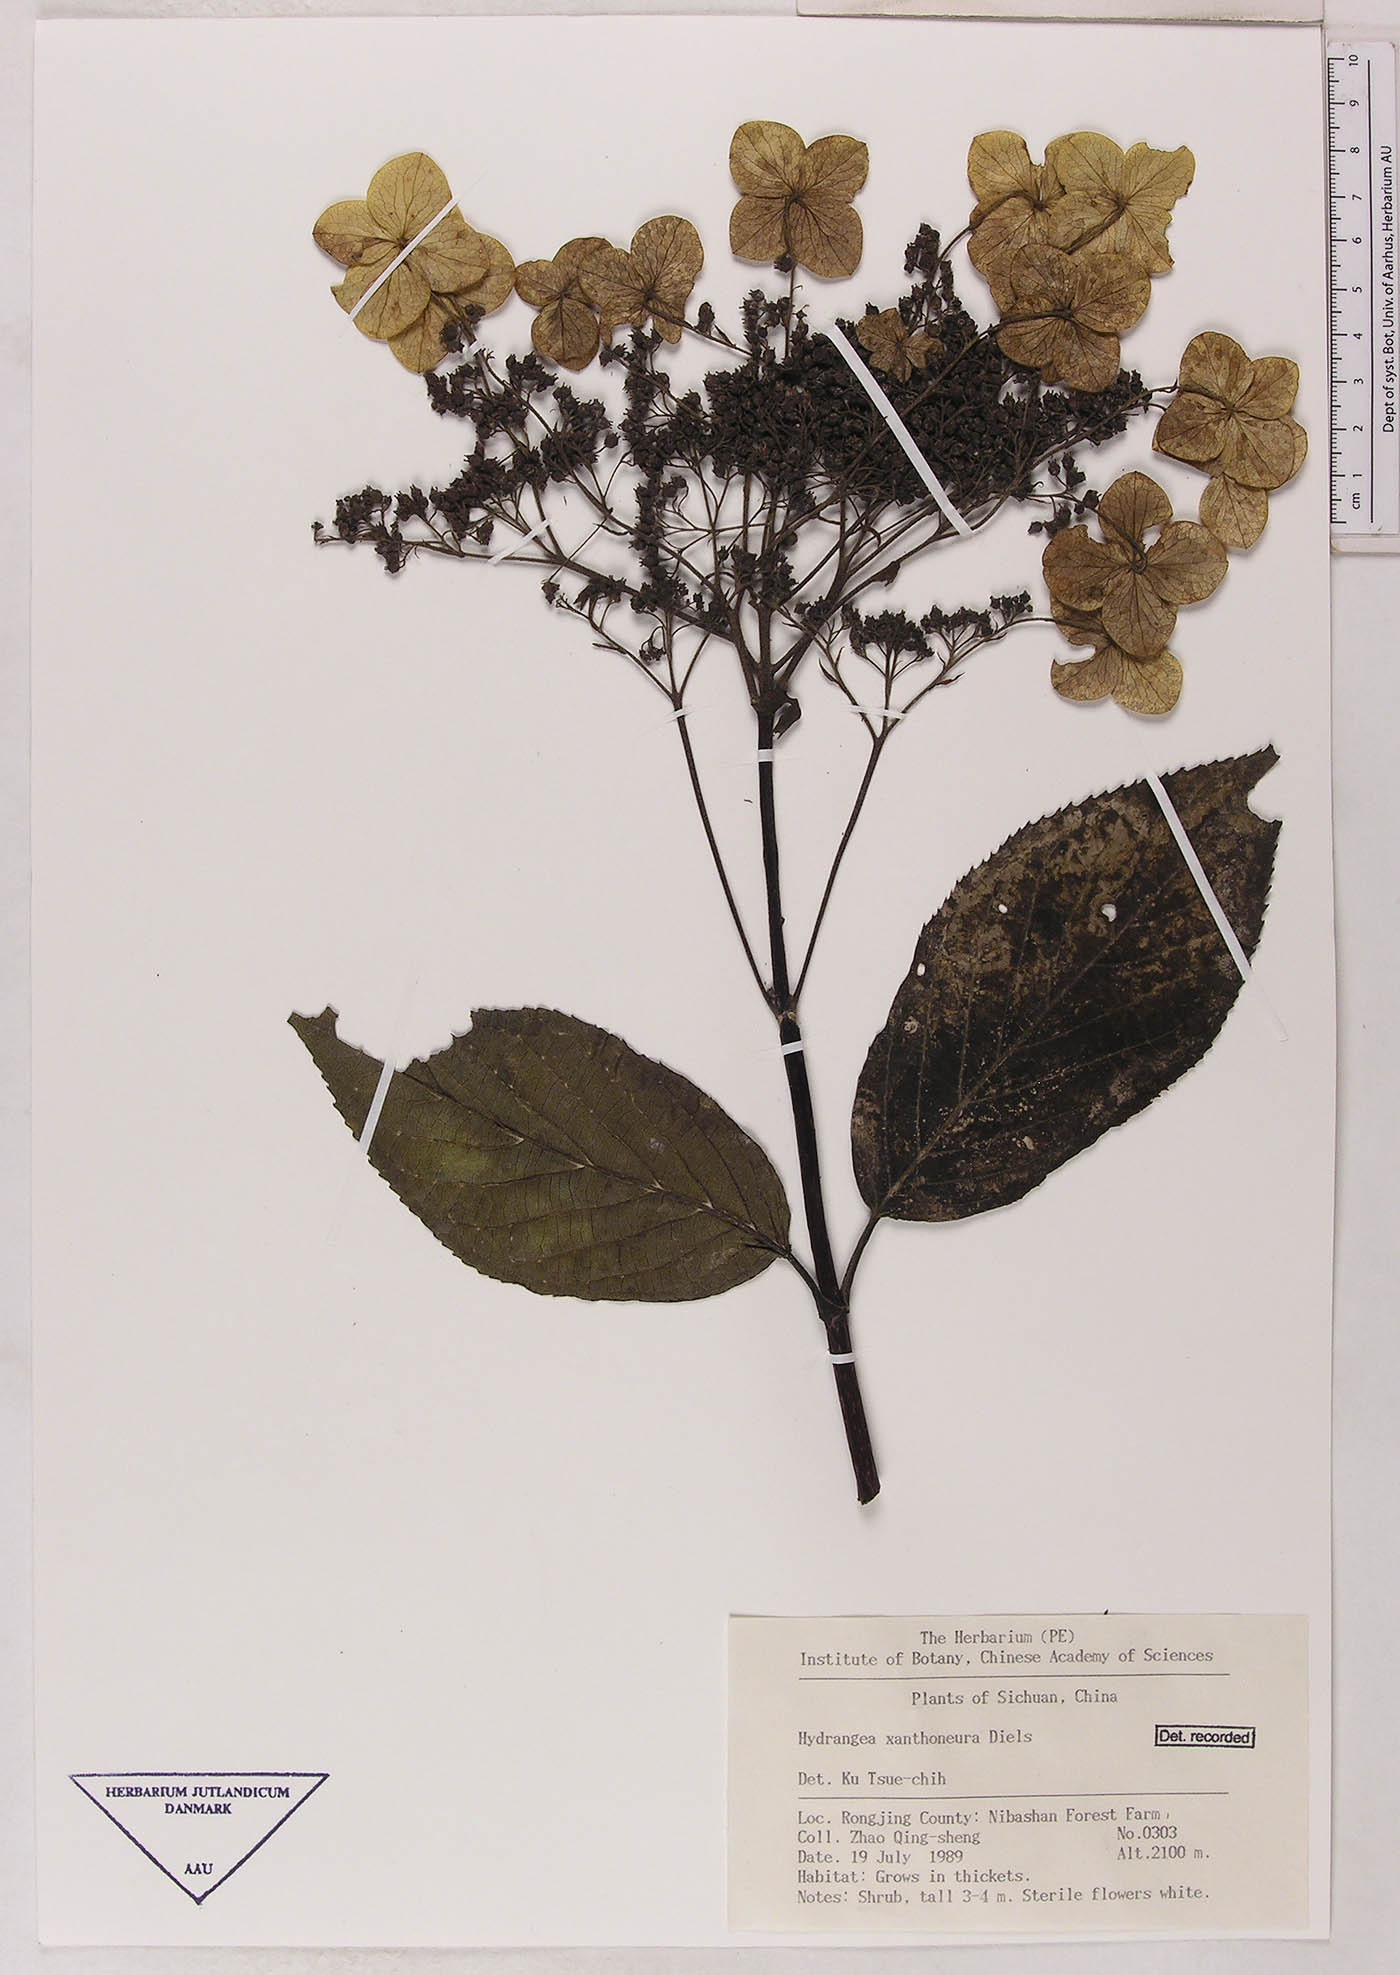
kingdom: Plantae
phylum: Tracheophyta
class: Magnoliopsida
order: Cornales
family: Hydrangeaceae
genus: Hydrangea
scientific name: Hydrangea xanthoneura
